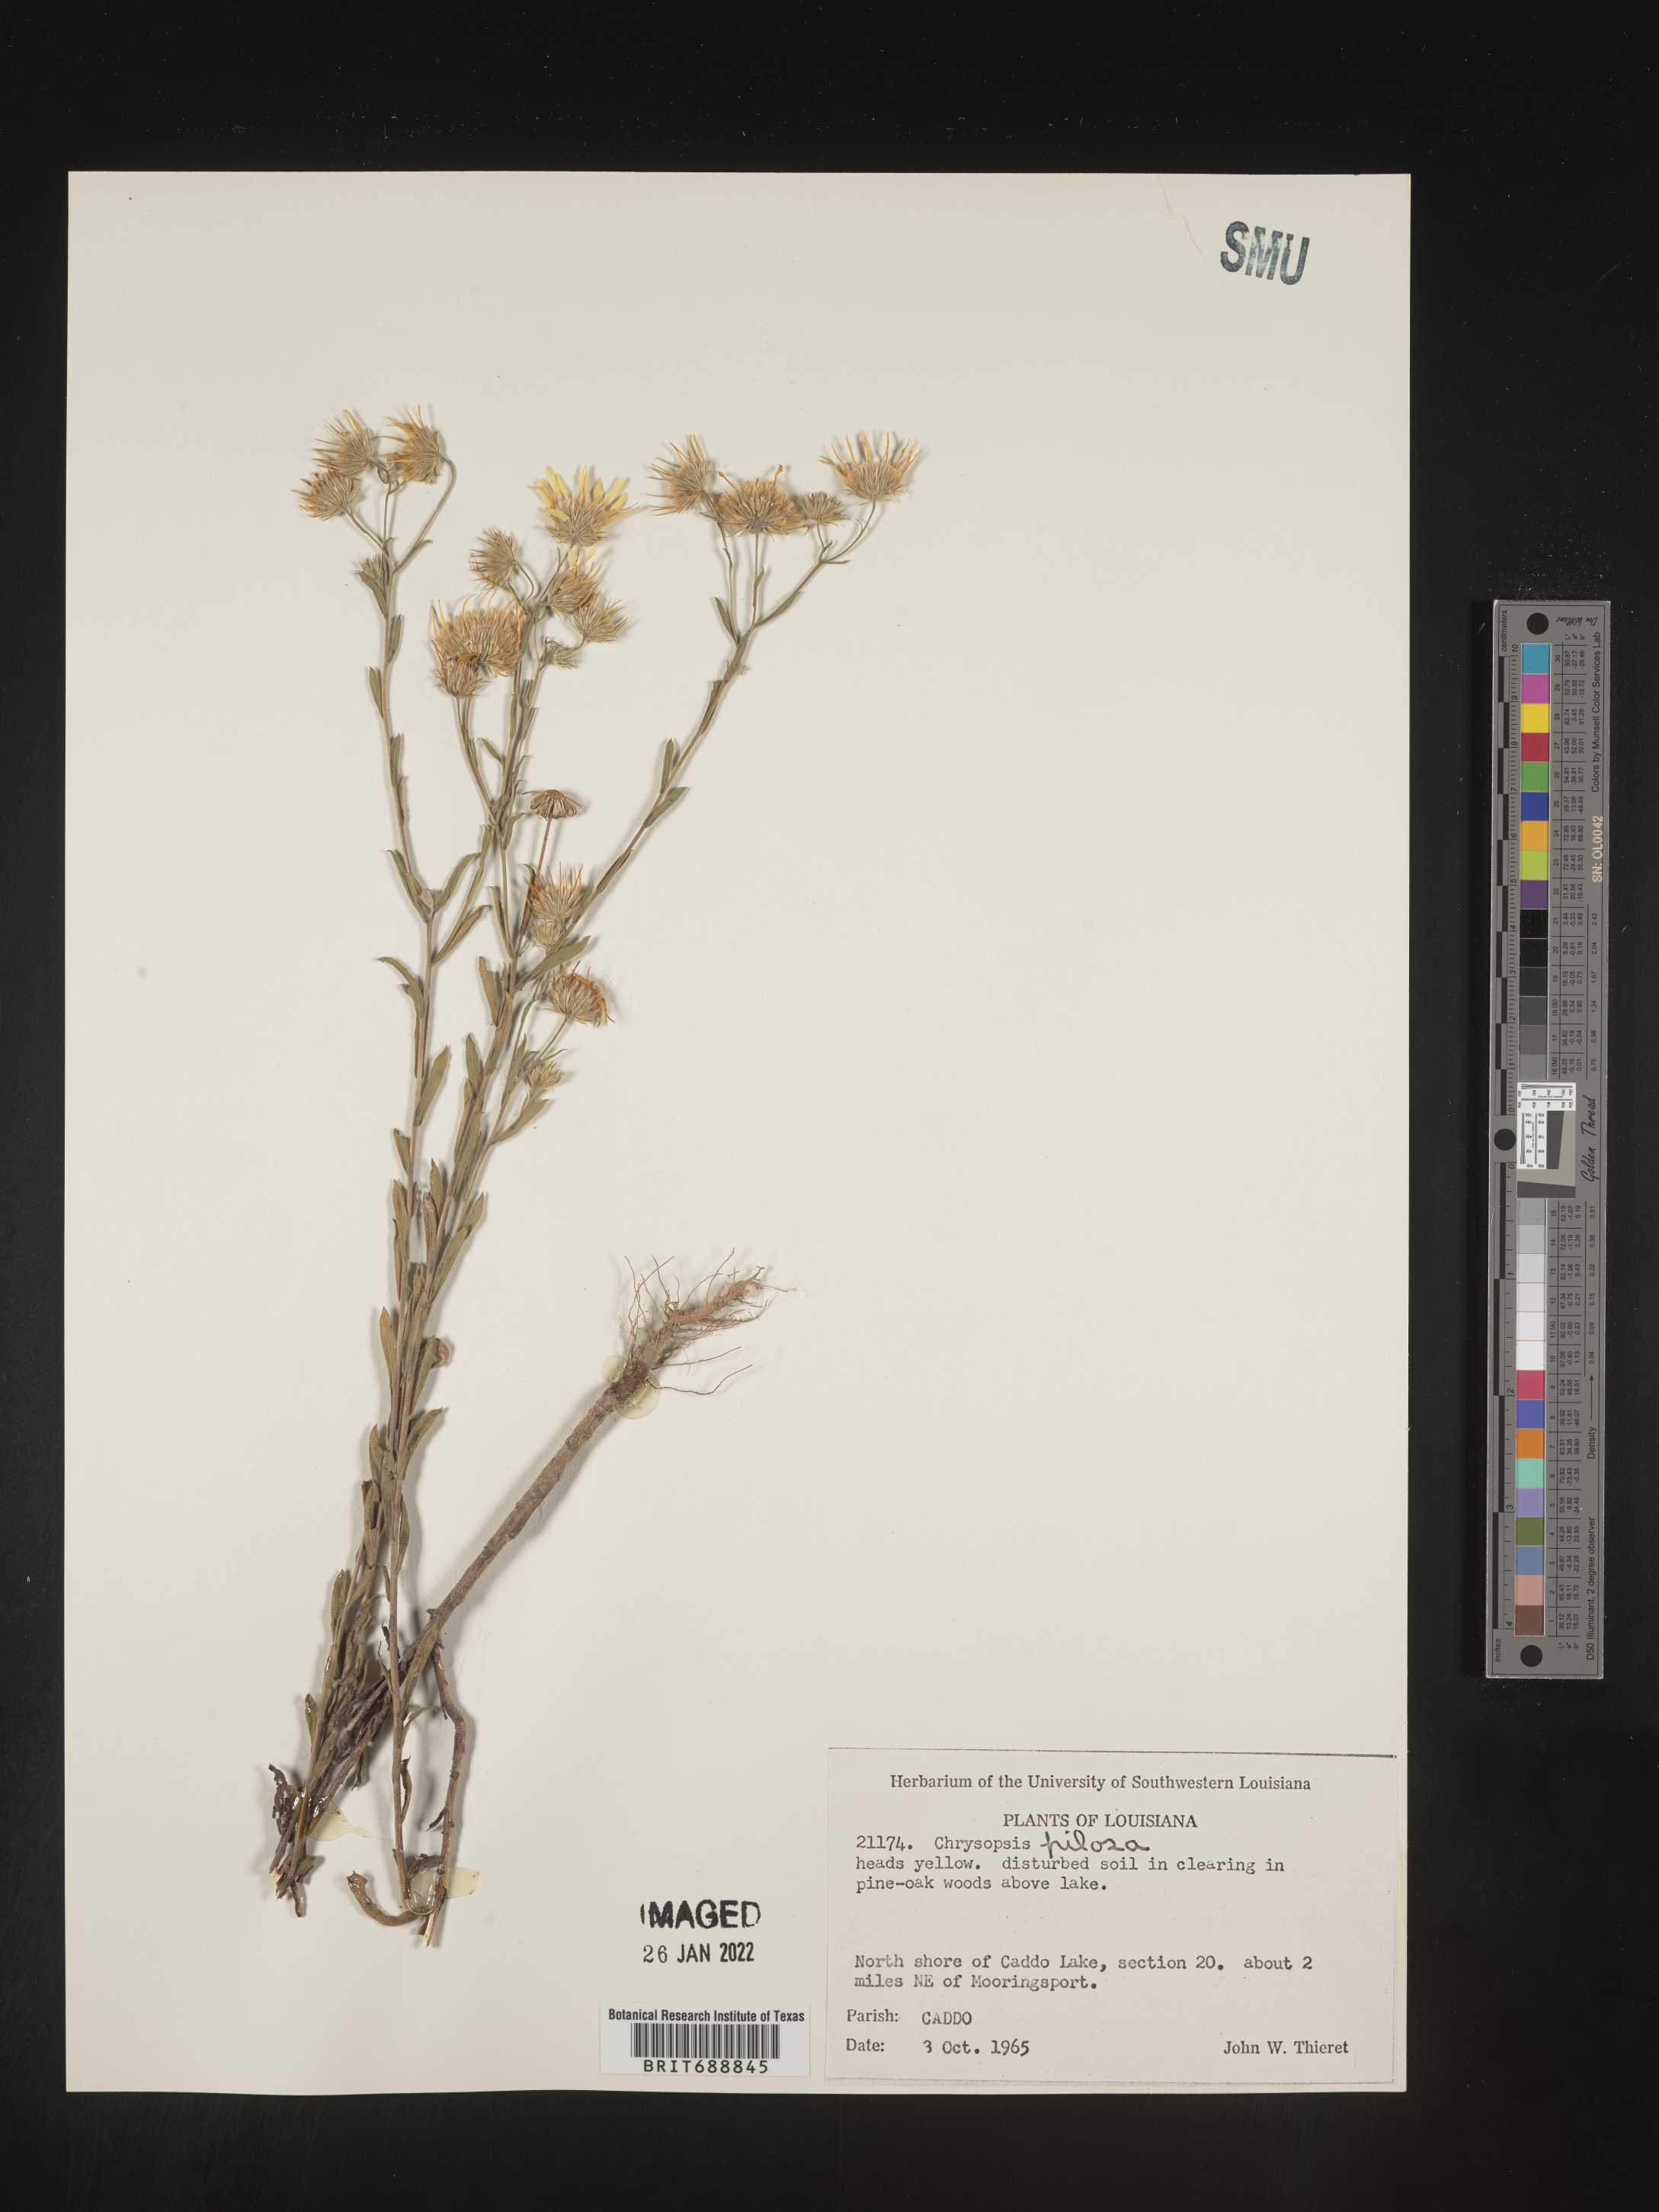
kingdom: Plantae
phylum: Tracheophyta
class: Magnoliopsida
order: Asterales
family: Asteraceae
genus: Bradburia
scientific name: Bradburia pilosa
